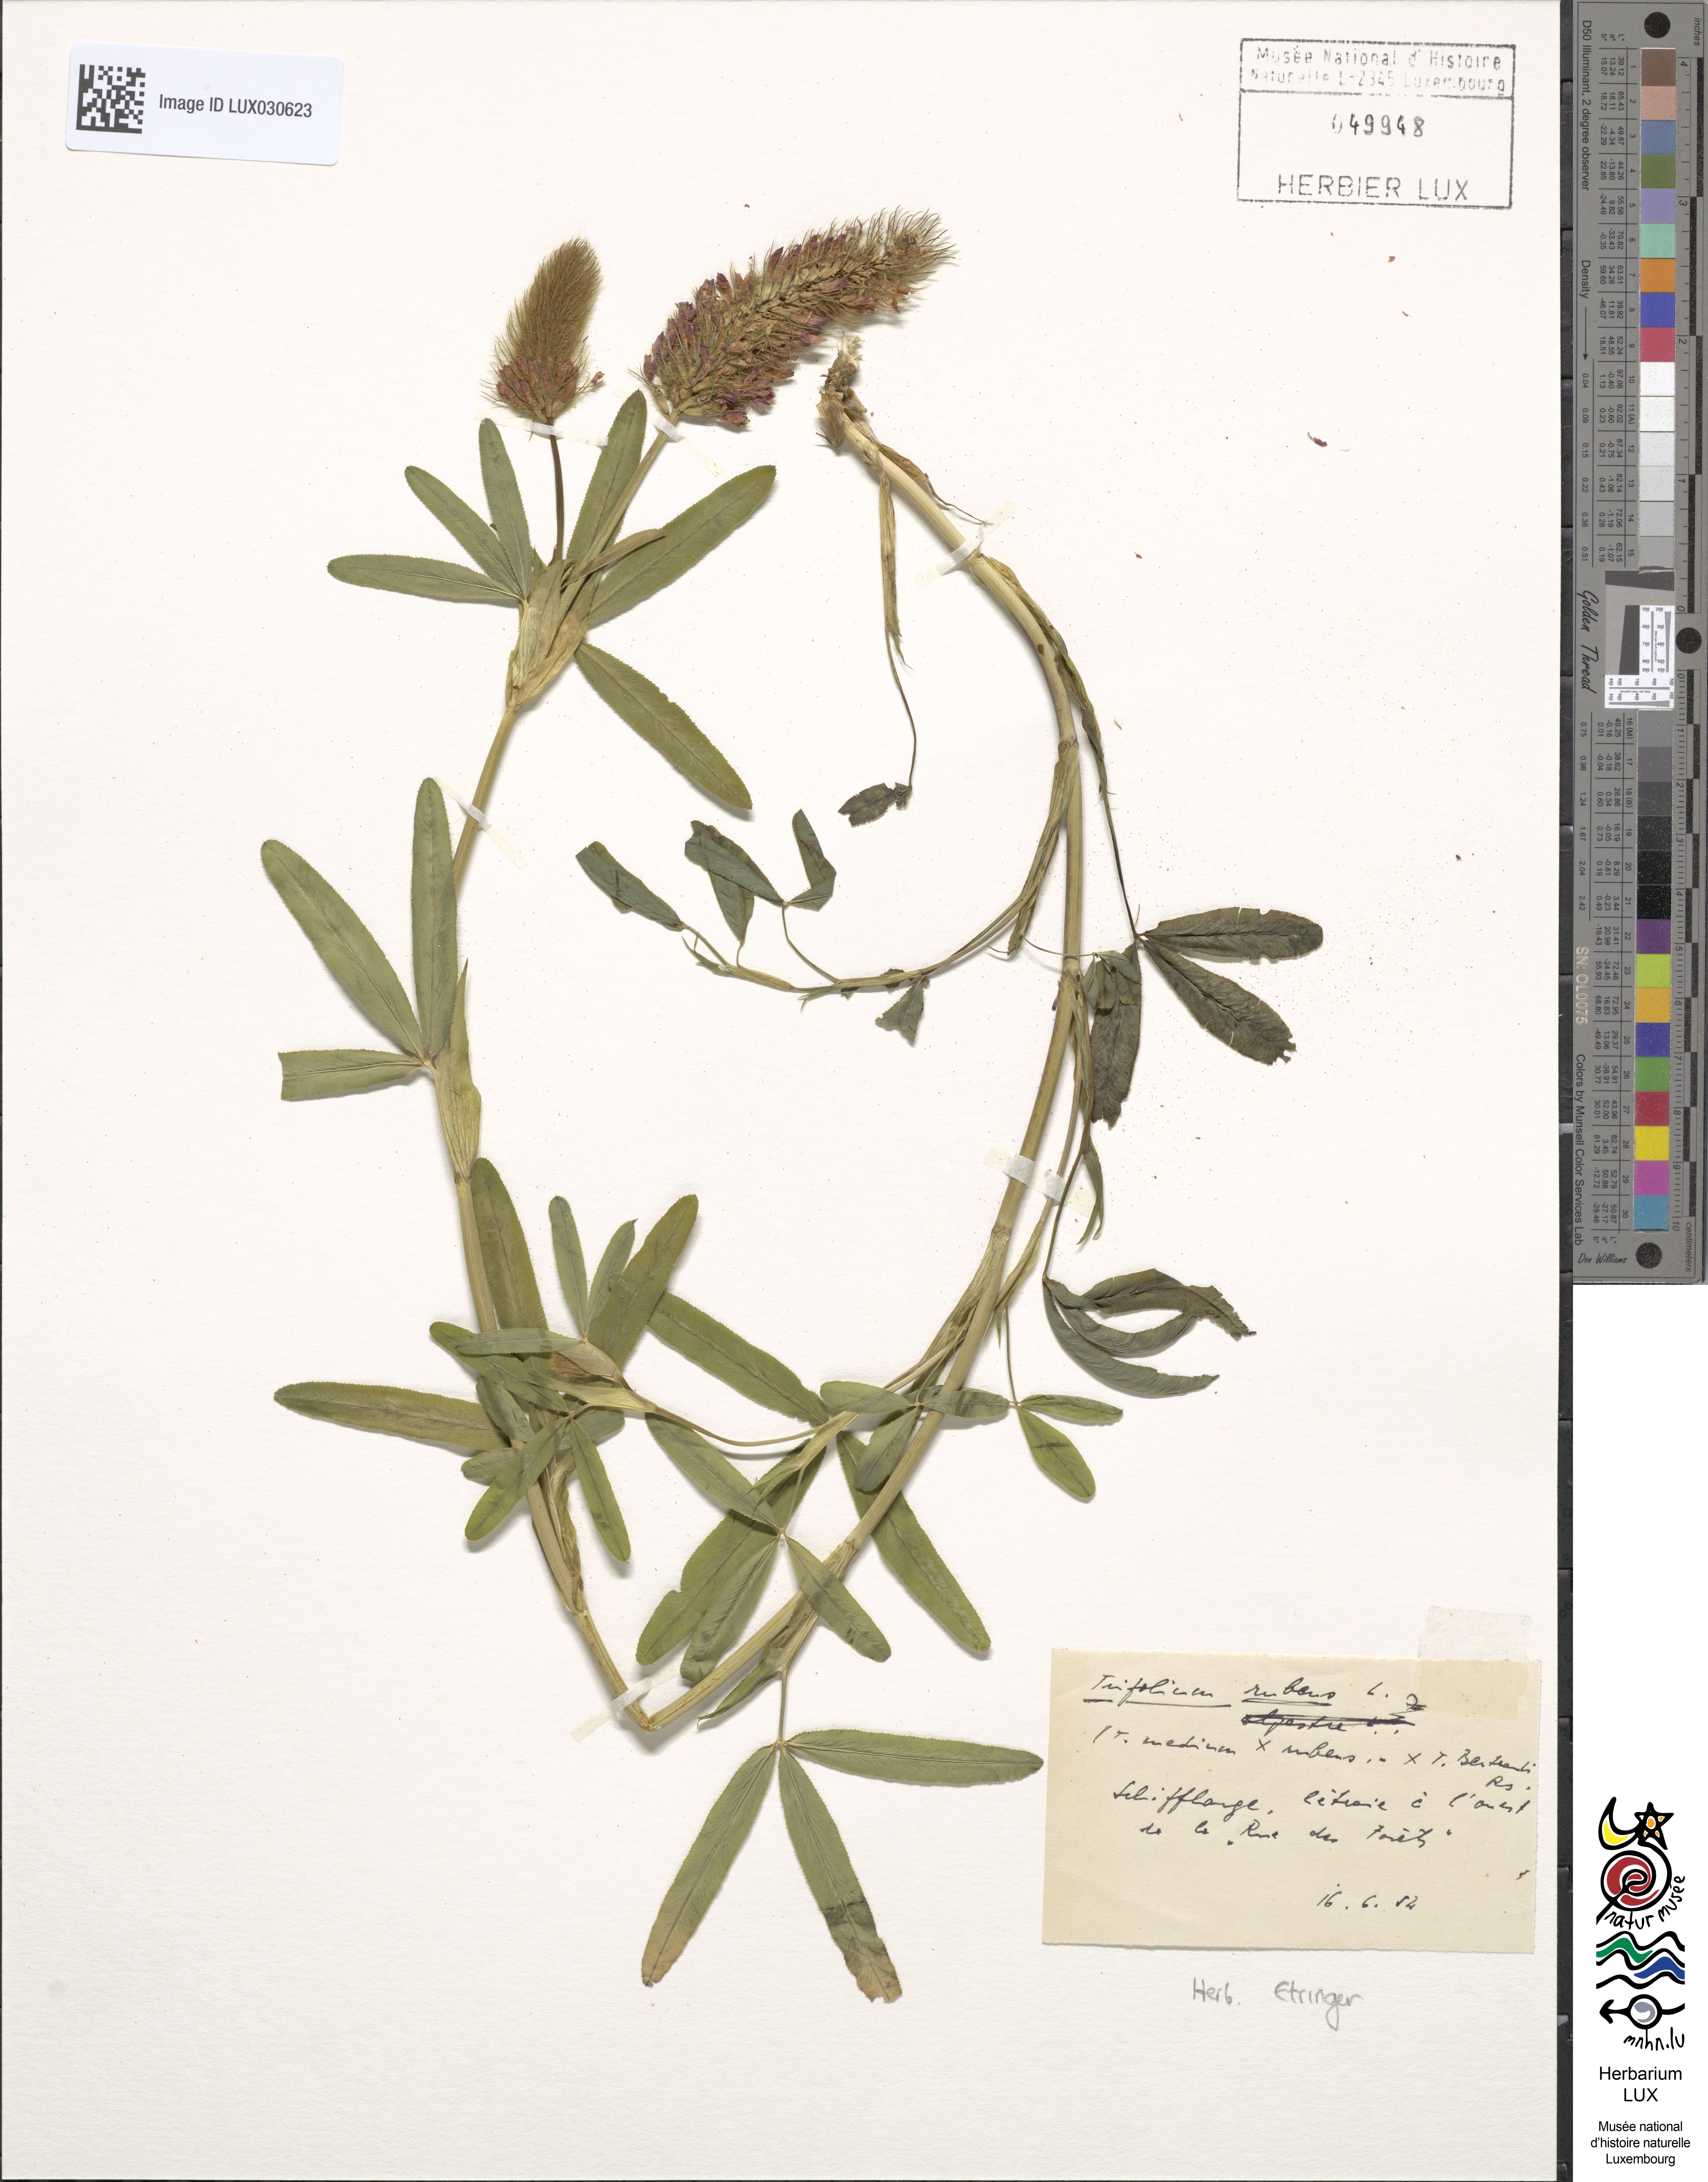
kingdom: Plantae
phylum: Tracheophyta
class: Magnoliopsida
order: Fabales
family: Fabaceae
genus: Trifolium
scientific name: Trifolium rubens
